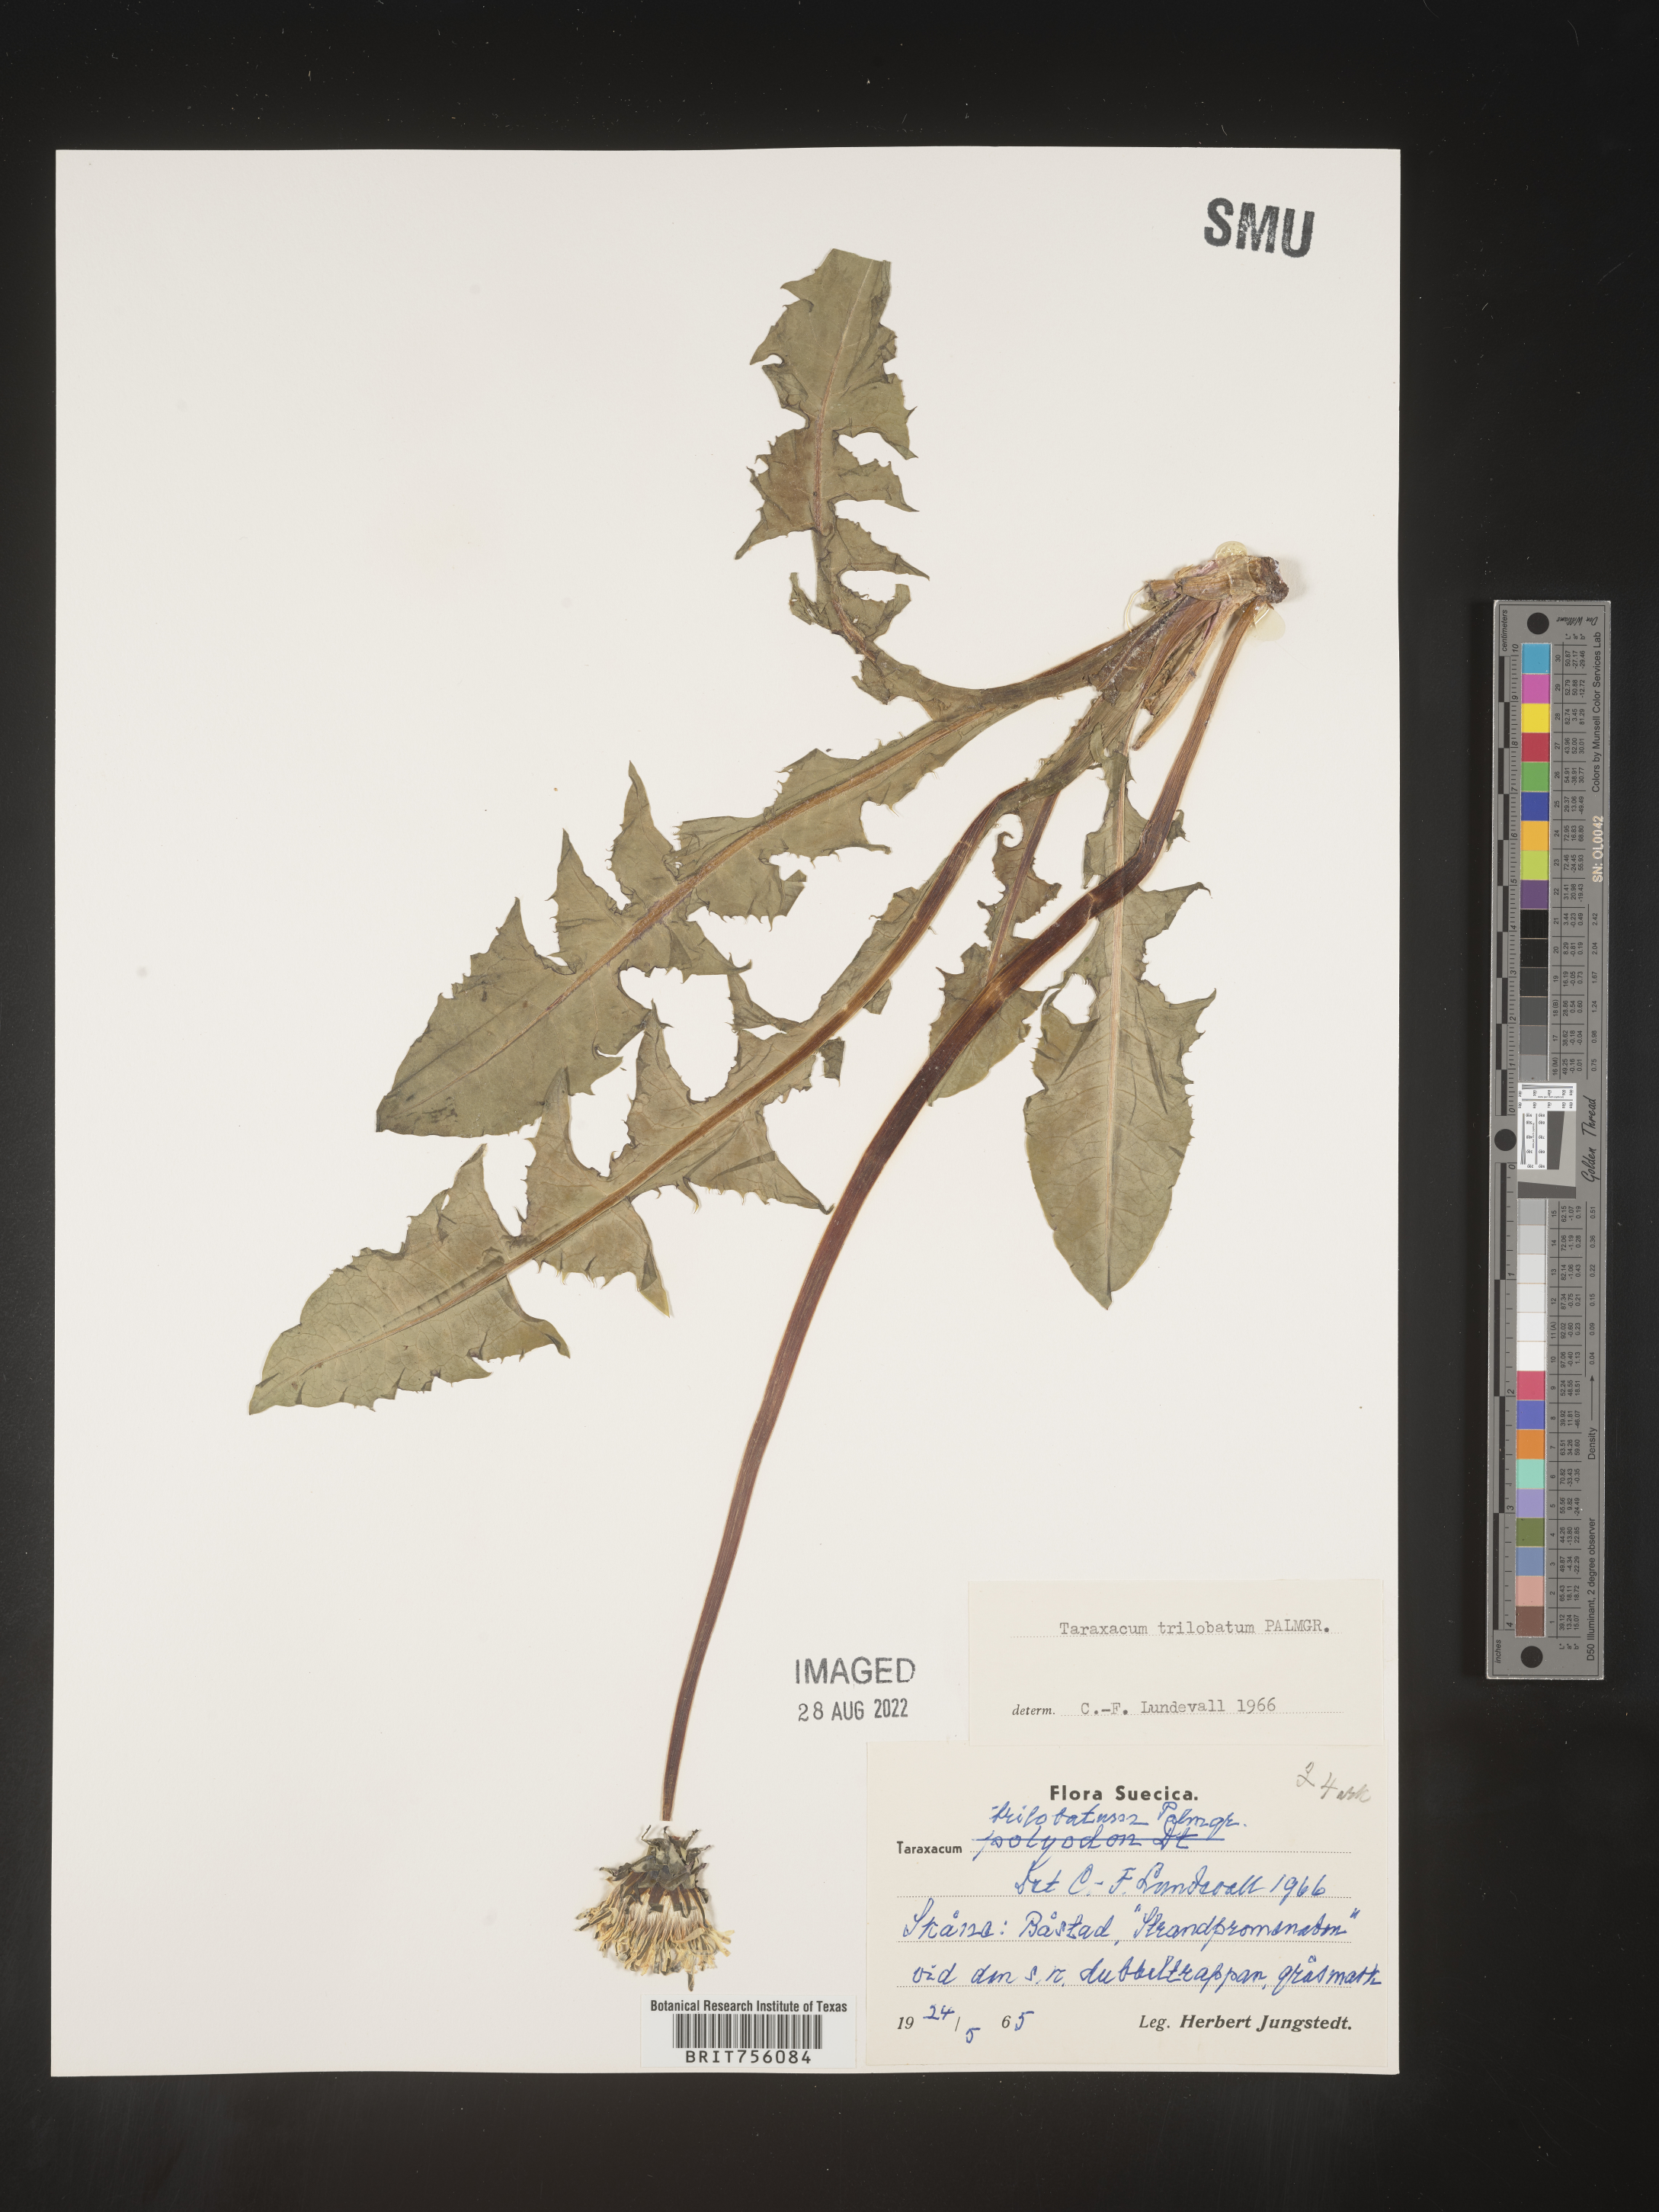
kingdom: Plantae
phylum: Tracheophyta
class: Magnoliopsida
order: Asterales
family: Asteraceae
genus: Taraxacum
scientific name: Taraxacum
